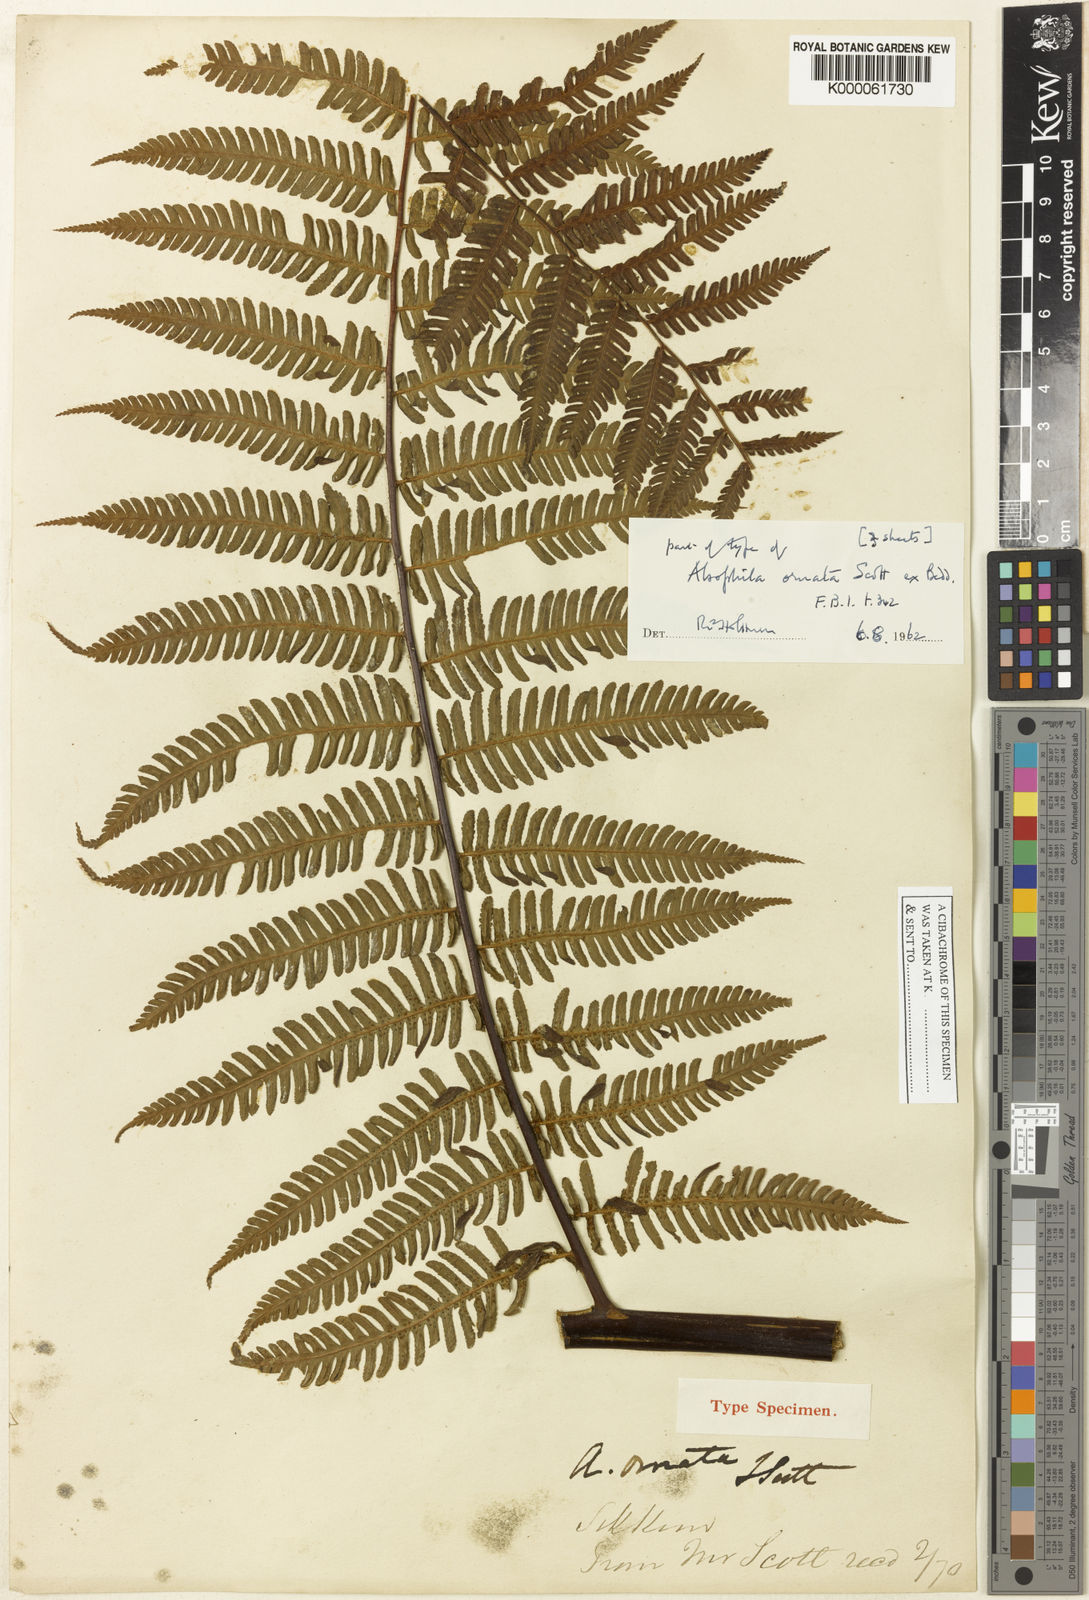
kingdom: Plantae
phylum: Tracheophyta
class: Polypodiopsida
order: Cyatheales
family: Cyatheaceae
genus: Gymnosphaera
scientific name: Gymnosphaera khasyana
